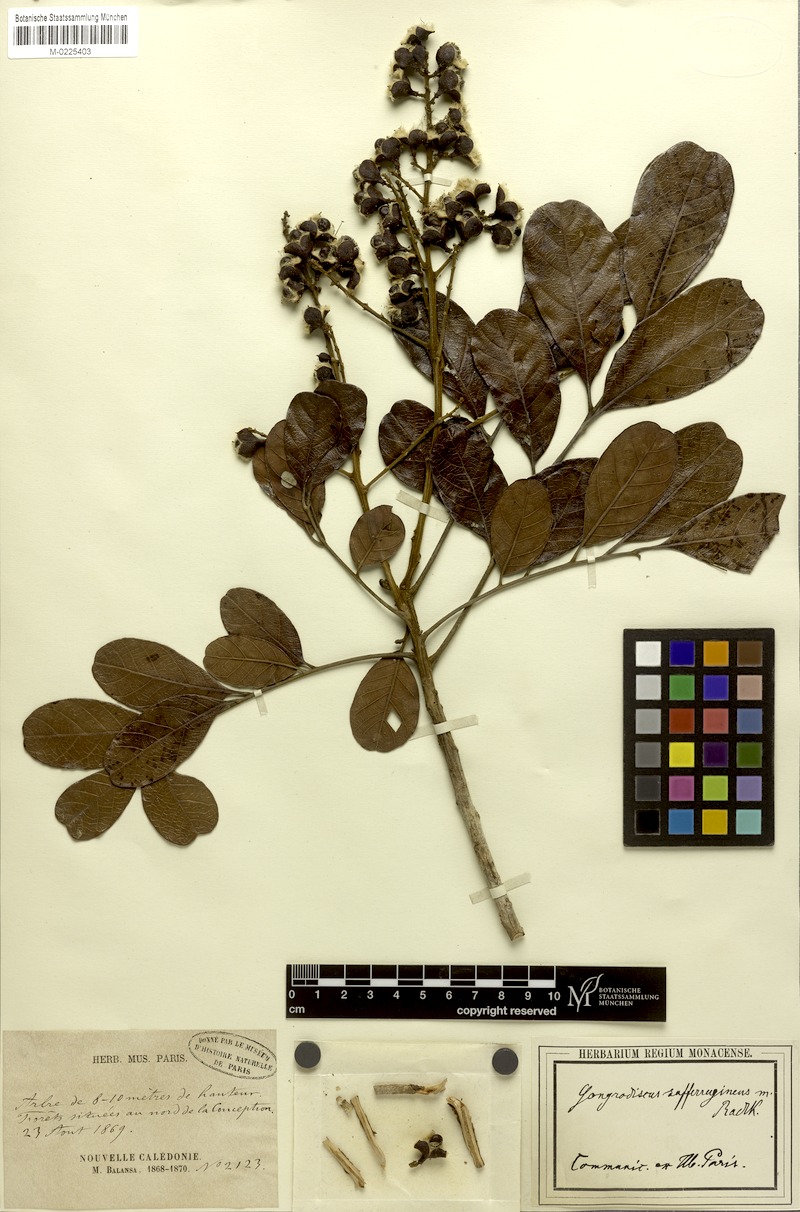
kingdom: Plantae
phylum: Tracheophyta
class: Magnoliopsida
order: Sapindales
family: Sapindaceae
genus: Gongrodiscus
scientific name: Gongrodiscus sufferrugineus
